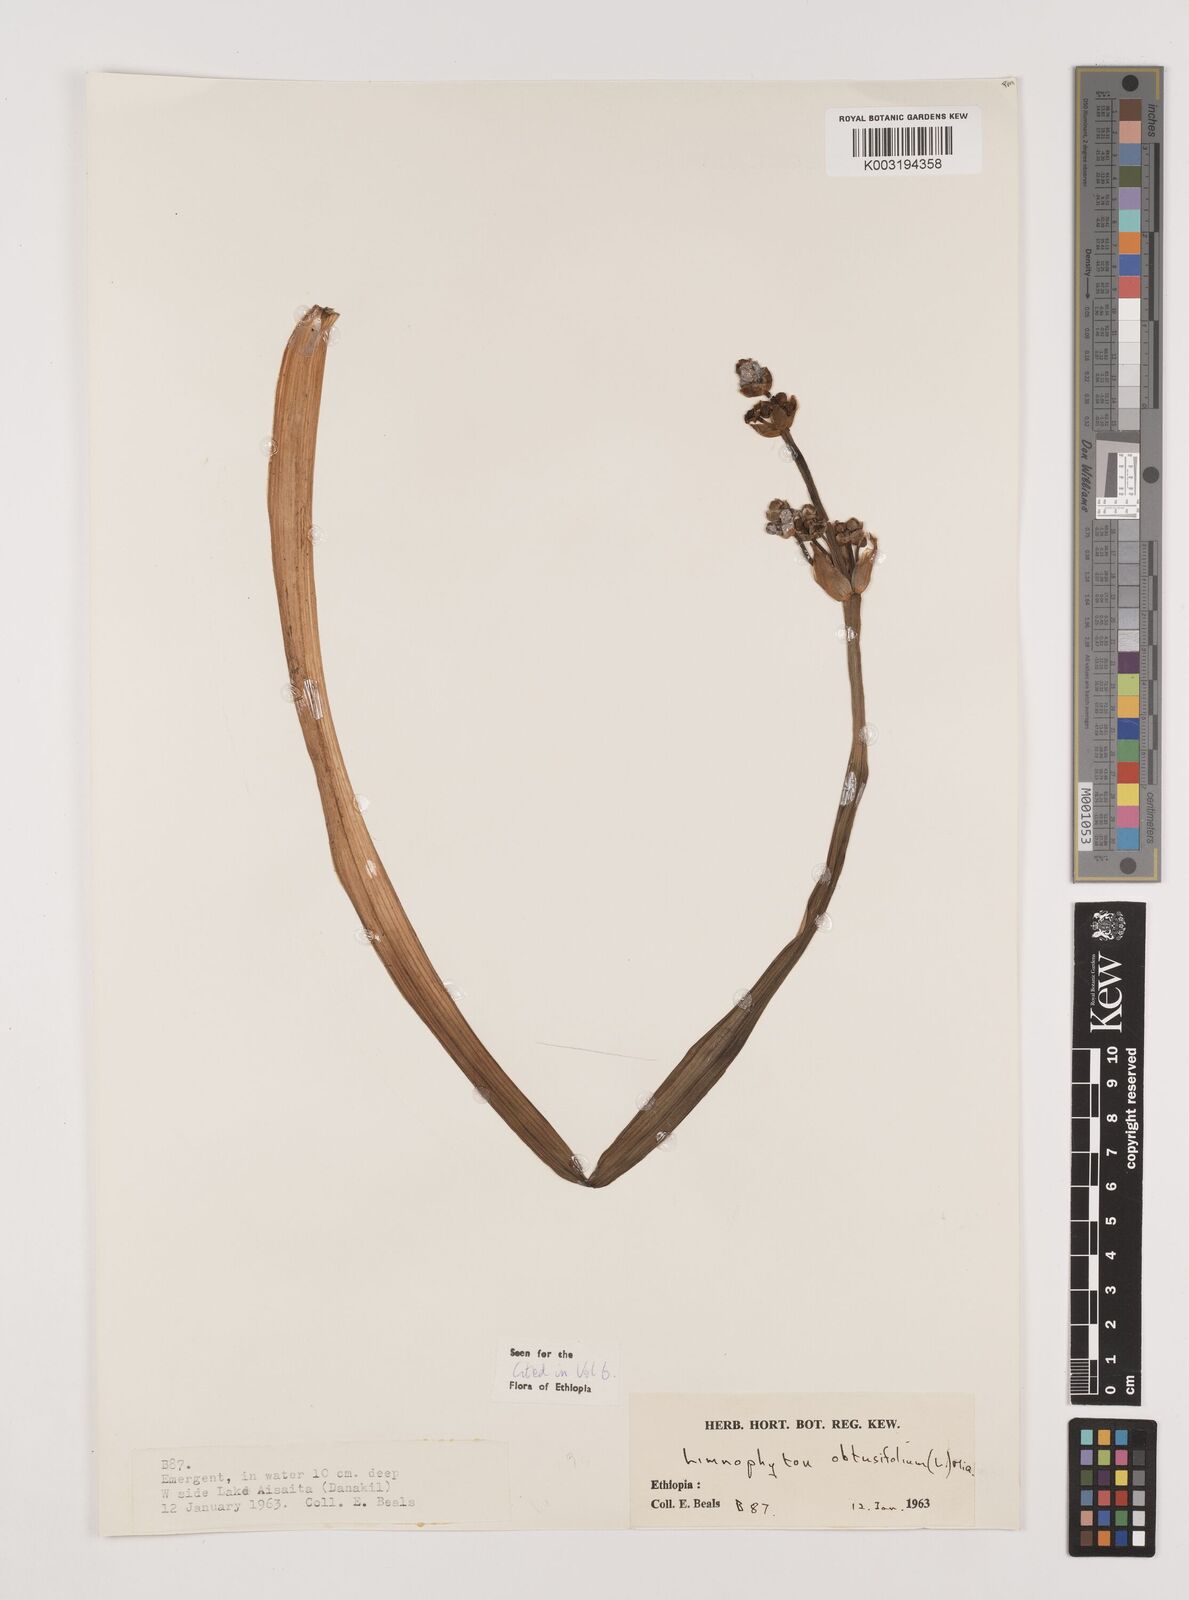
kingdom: Plantae
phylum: Tracheophyta
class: Liliopsida
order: Alismatales
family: Alismataceae
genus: Limnophyton
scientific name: Limnophyton obtusifolium
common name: Arrow head
